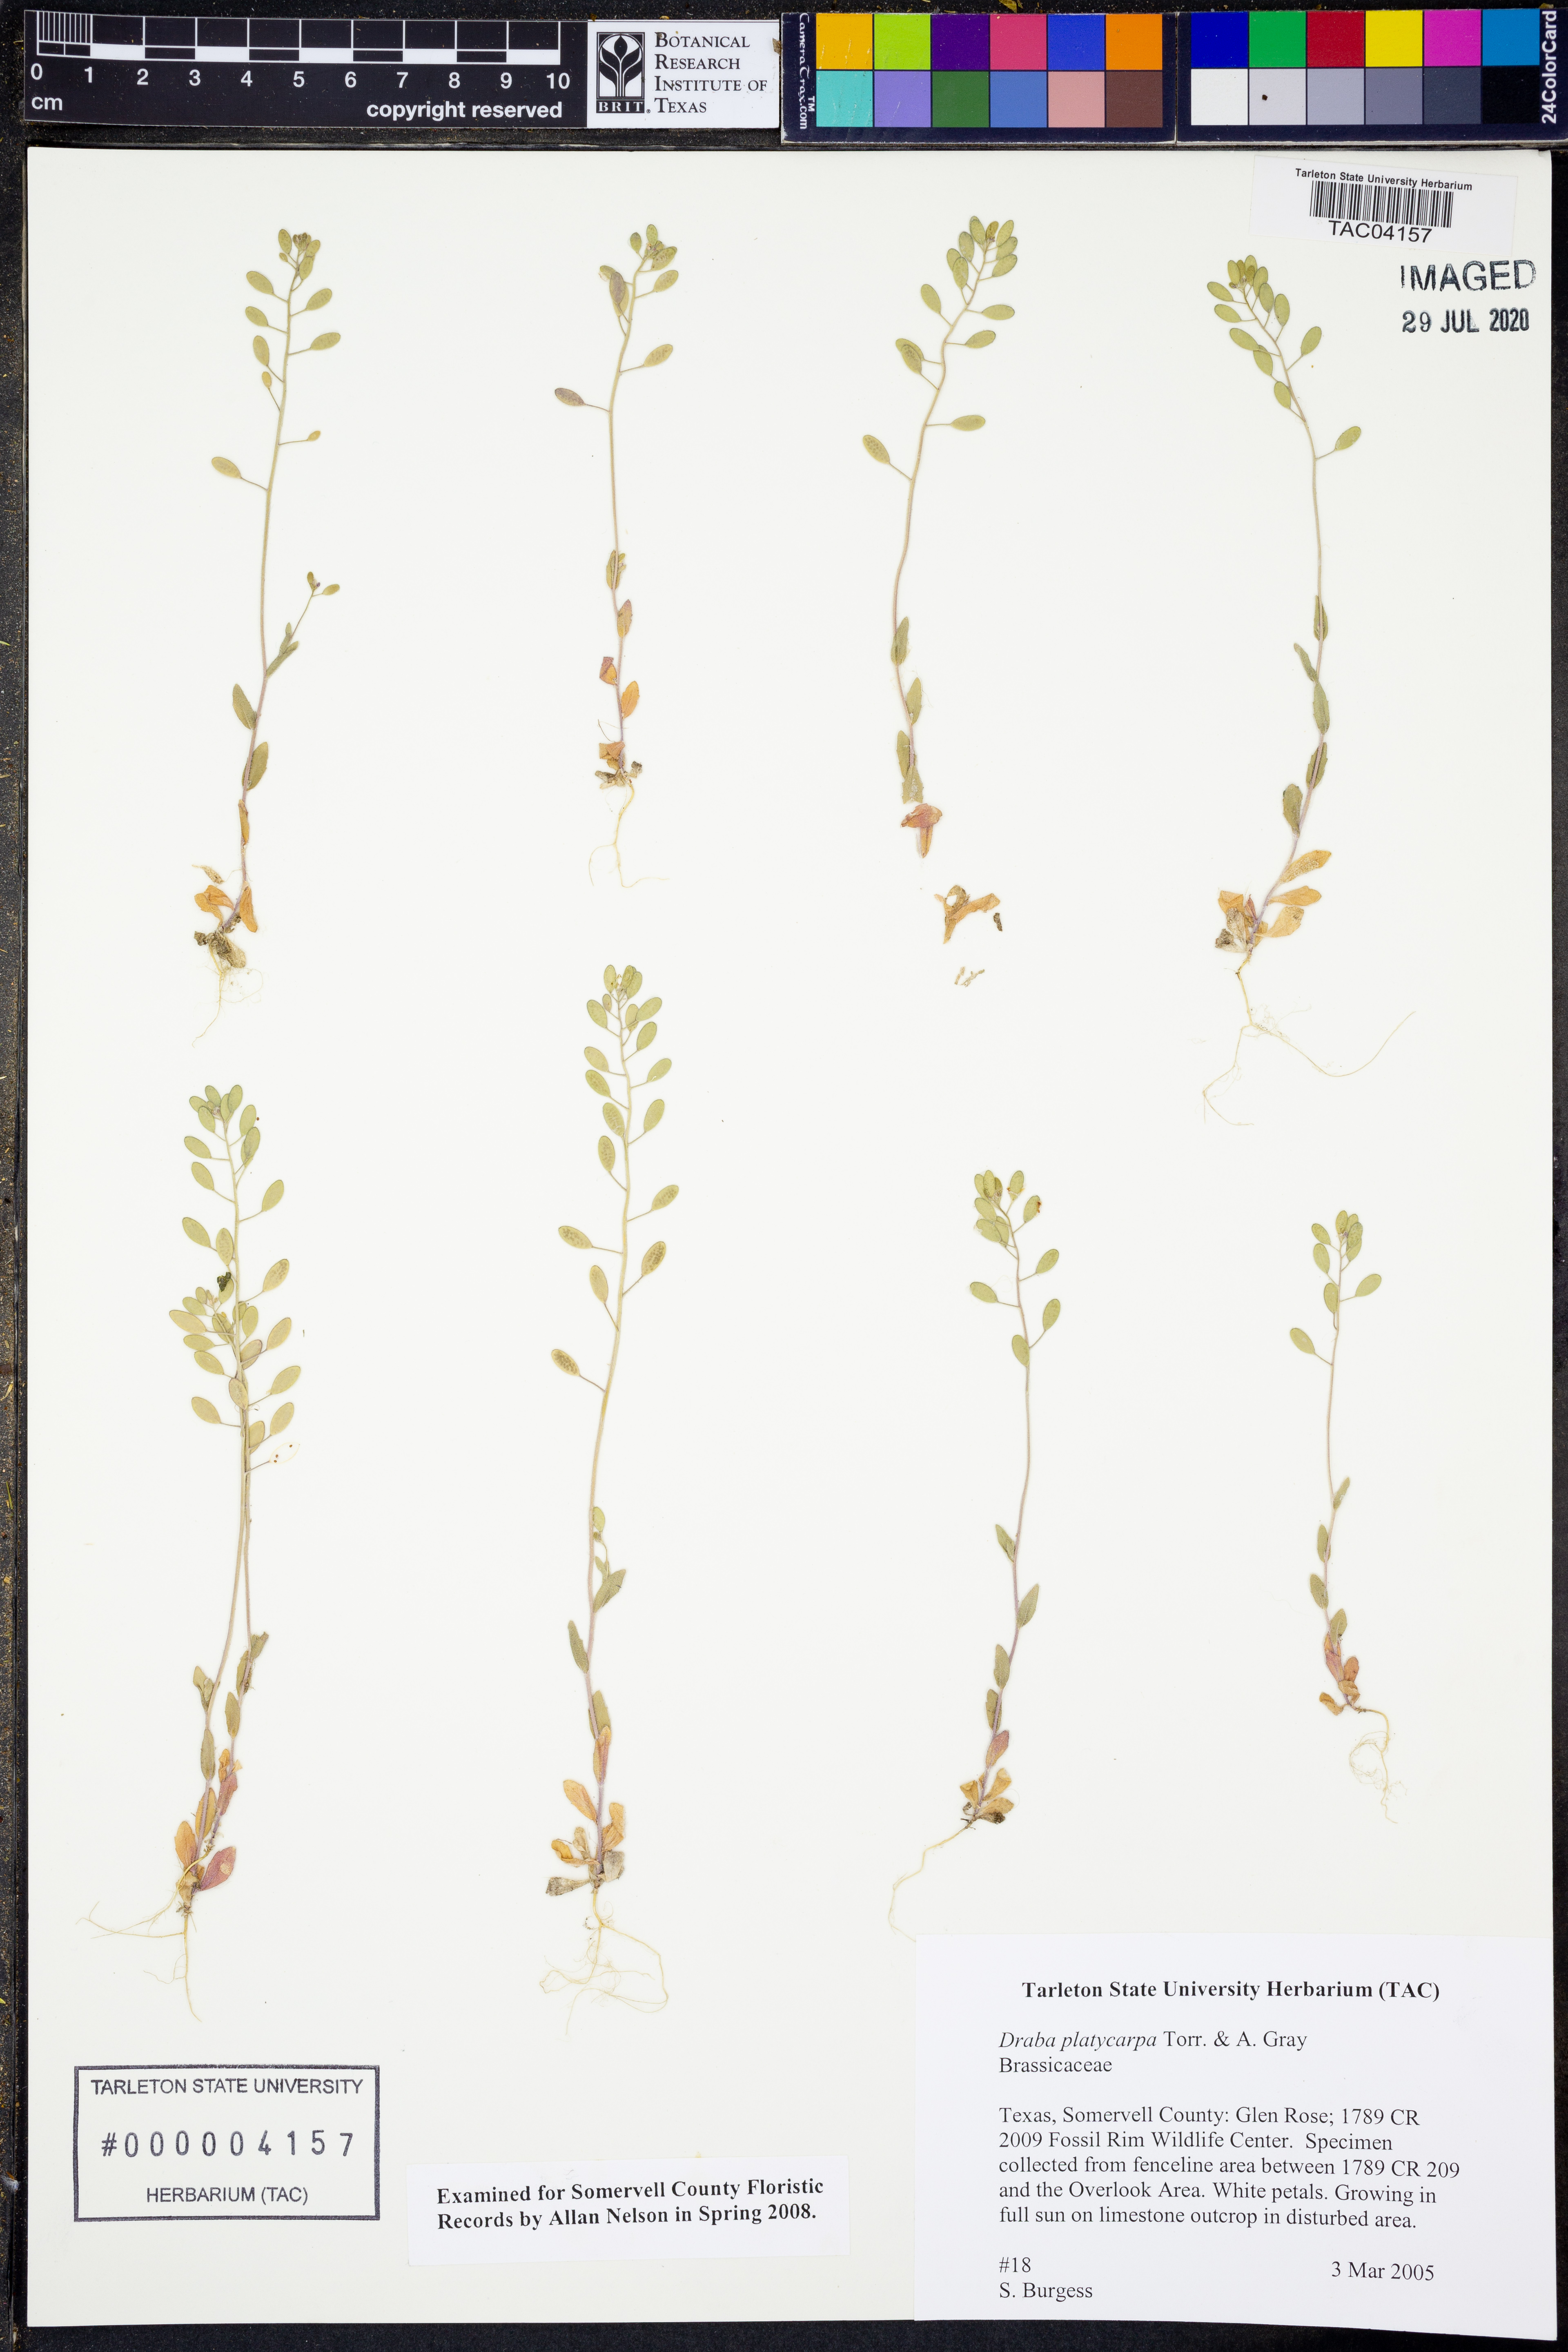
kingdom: Plantae
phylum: Tracheophyta
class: Magnoliopsida
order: Brassicales
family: Brassicaceae
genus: Tomostima
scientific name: Tomostima platycarpa
